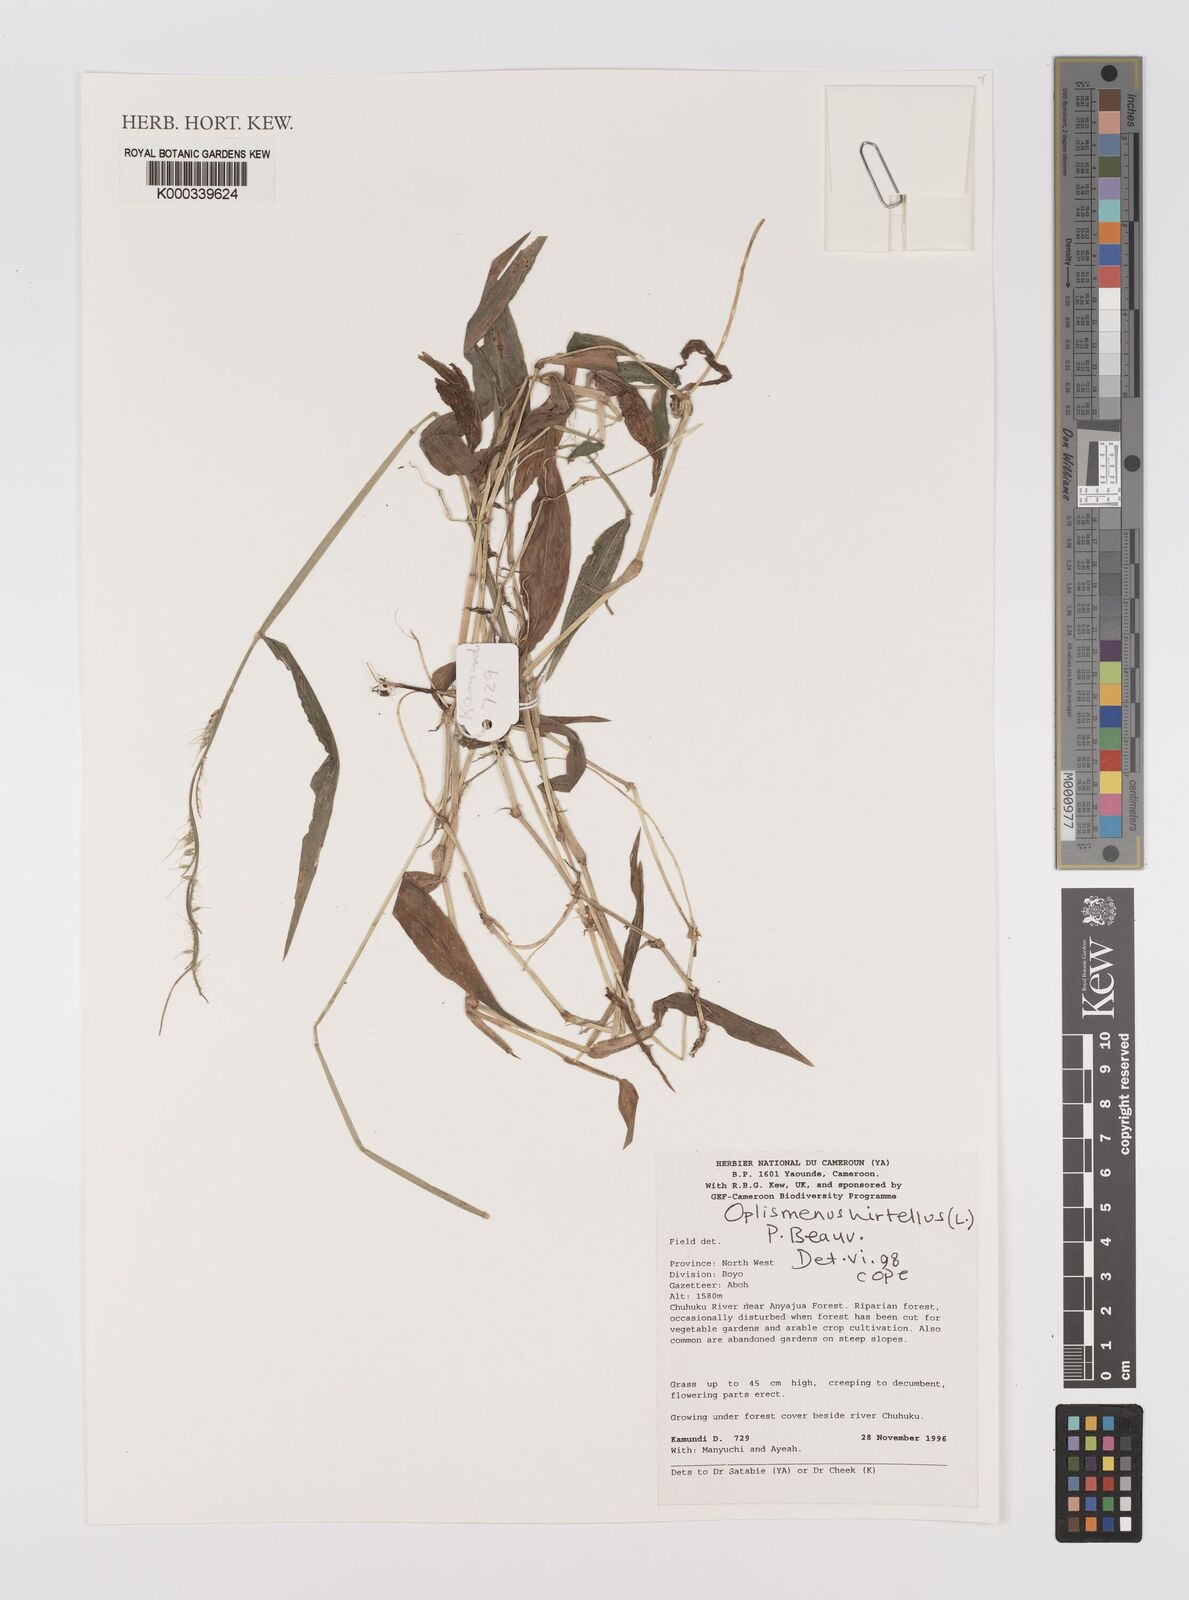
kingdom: Plantae
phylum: Tracheophyta
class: Liliopsida
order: Poales
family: Poaceae
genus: Oplismenus
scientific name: Oplismenus hirtellus
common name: Basketgrass
